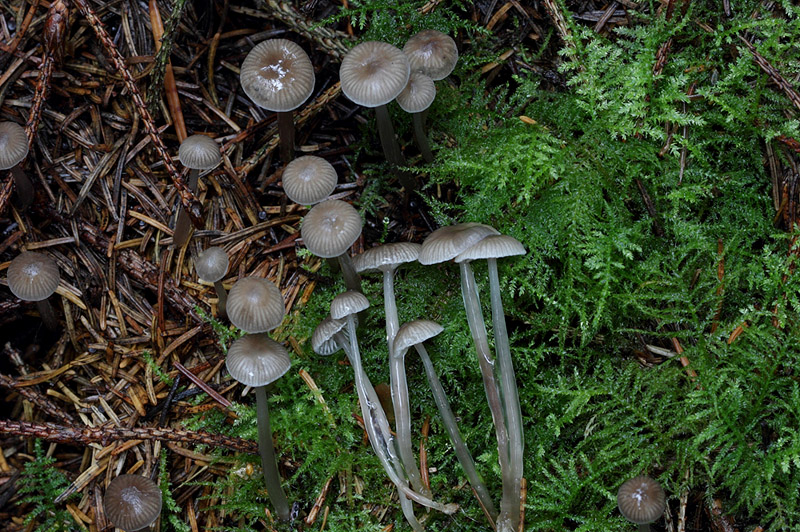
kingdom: Fungi
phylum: Basidiomycota
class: Agaricomycetes
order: Agaricales
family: Mycenaceae
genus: Mycena
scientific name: Mycena vulgaris
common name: klæbrig huesvamp
